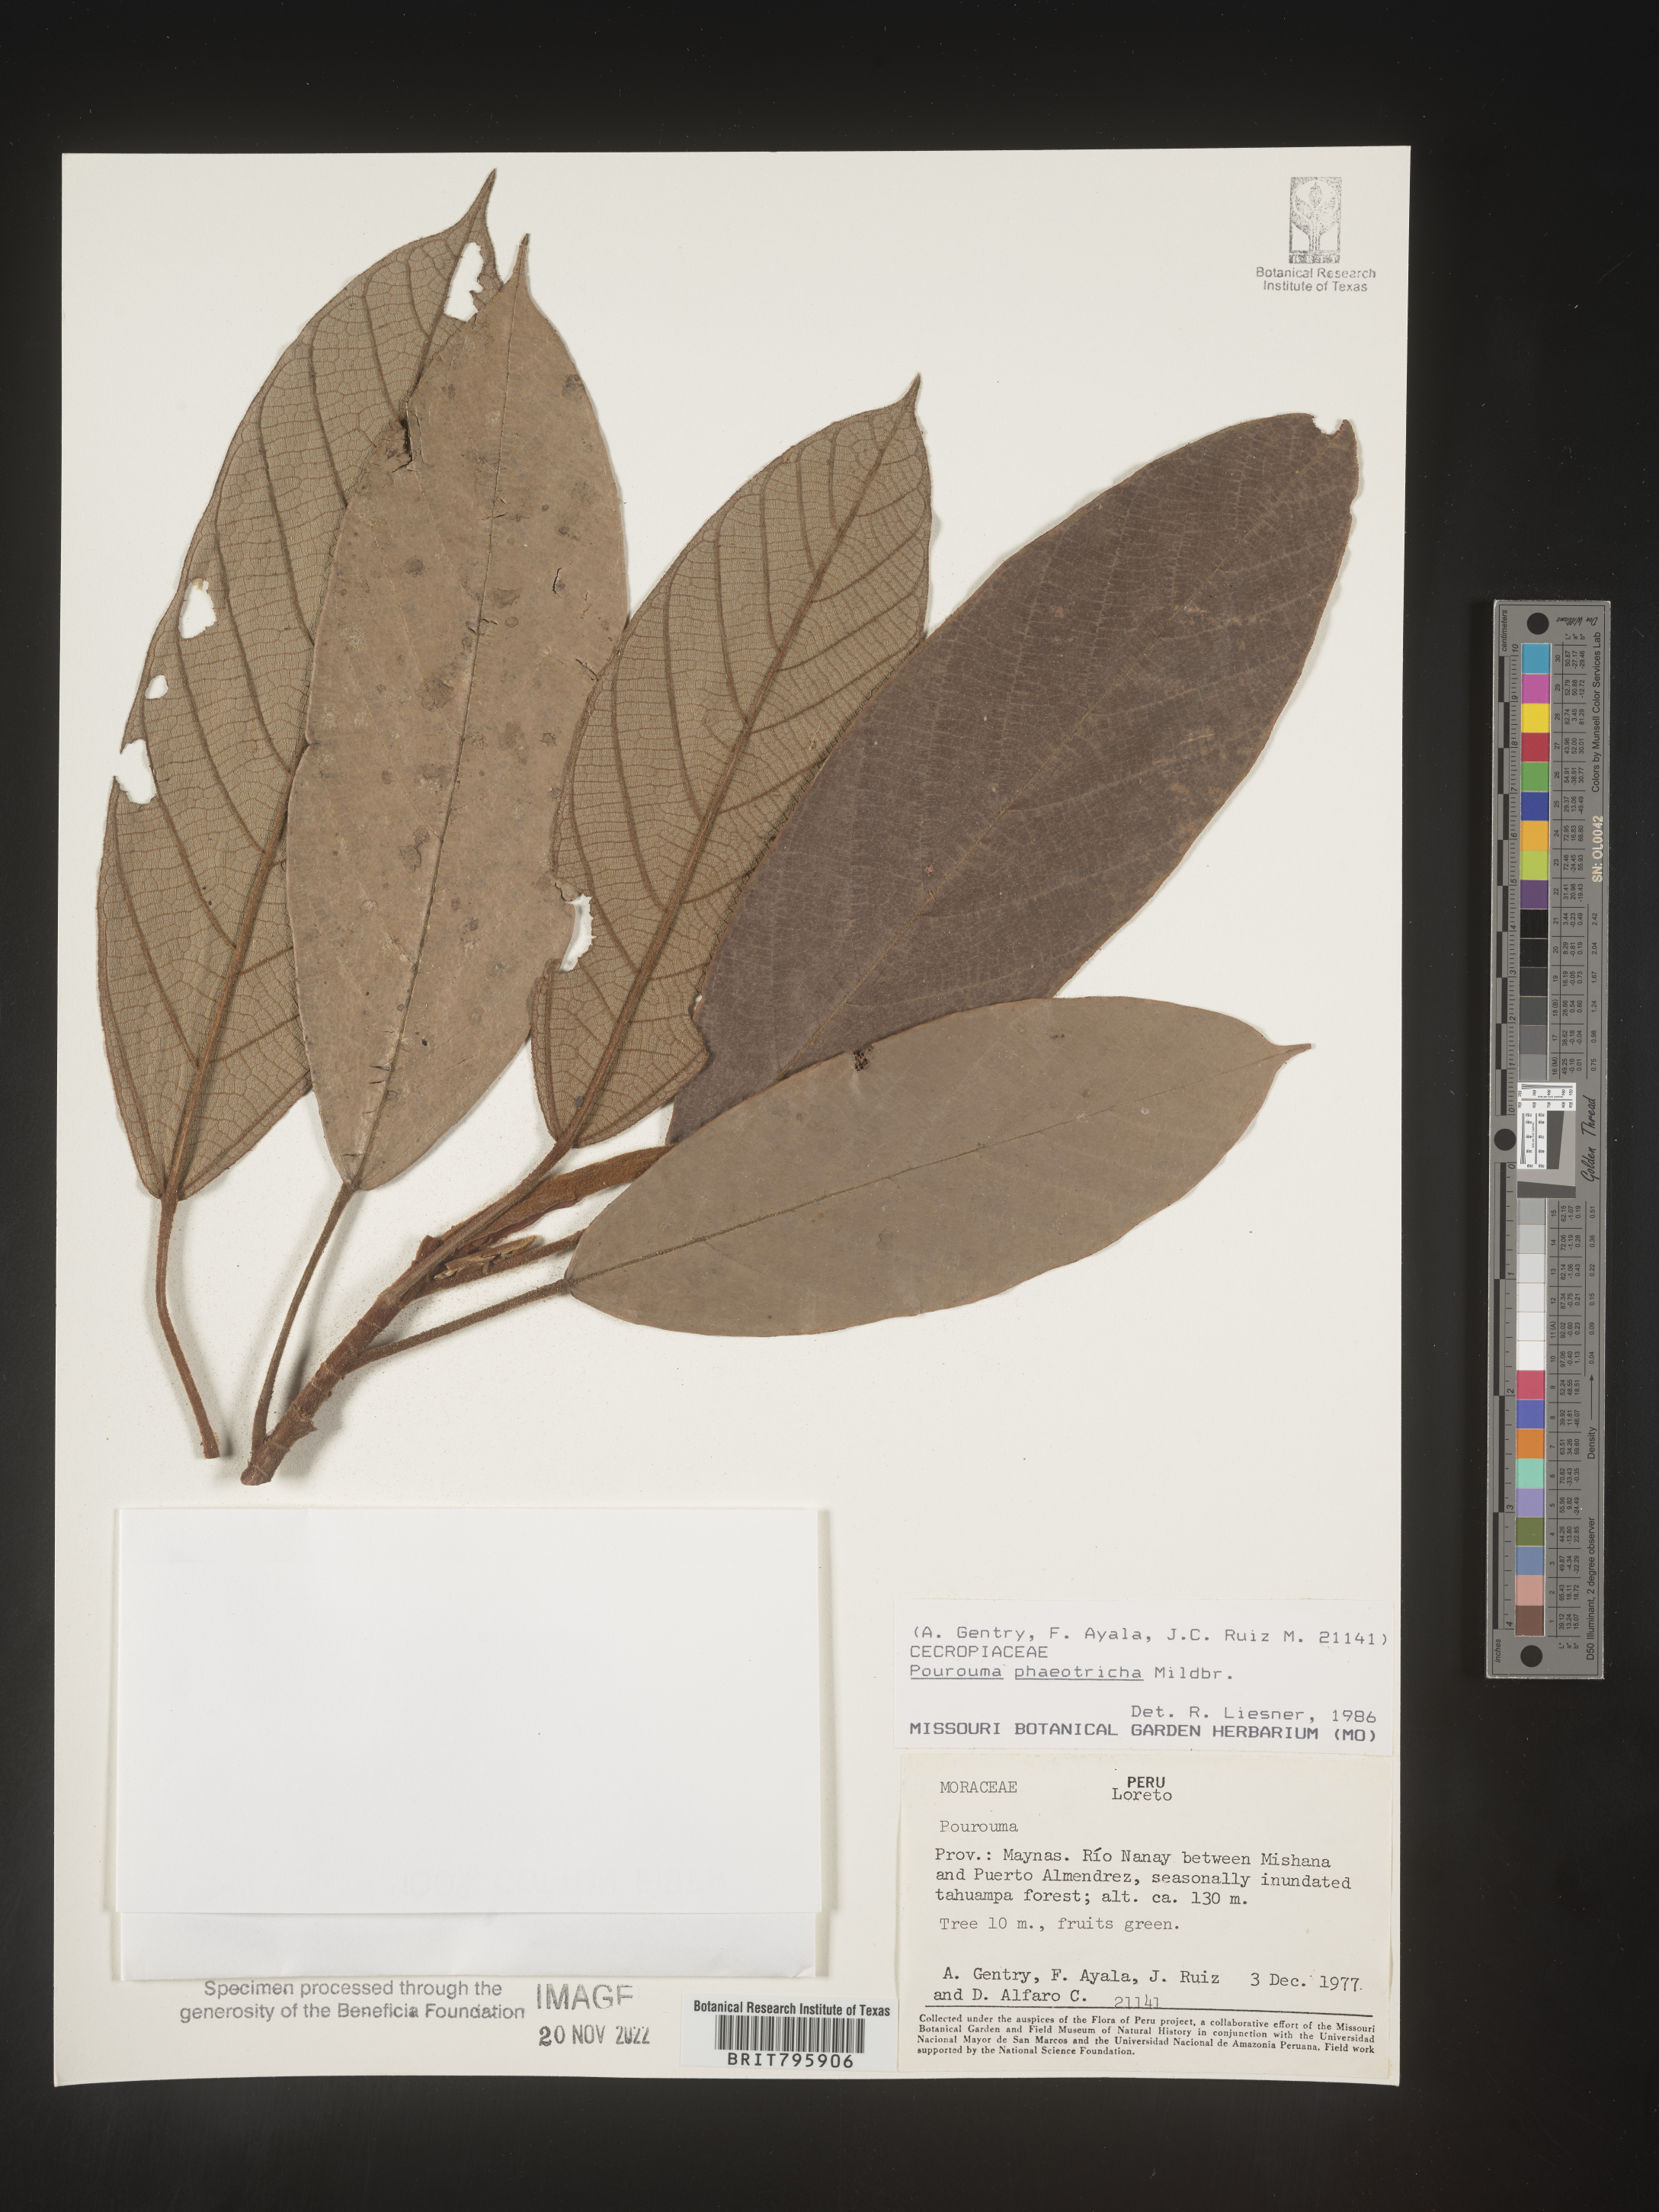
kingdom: Plantae
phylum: Tracheophyta
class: Magnoliopsida
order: Rosales
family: Urticaceae
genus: Pourouma
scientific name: Pourouma
